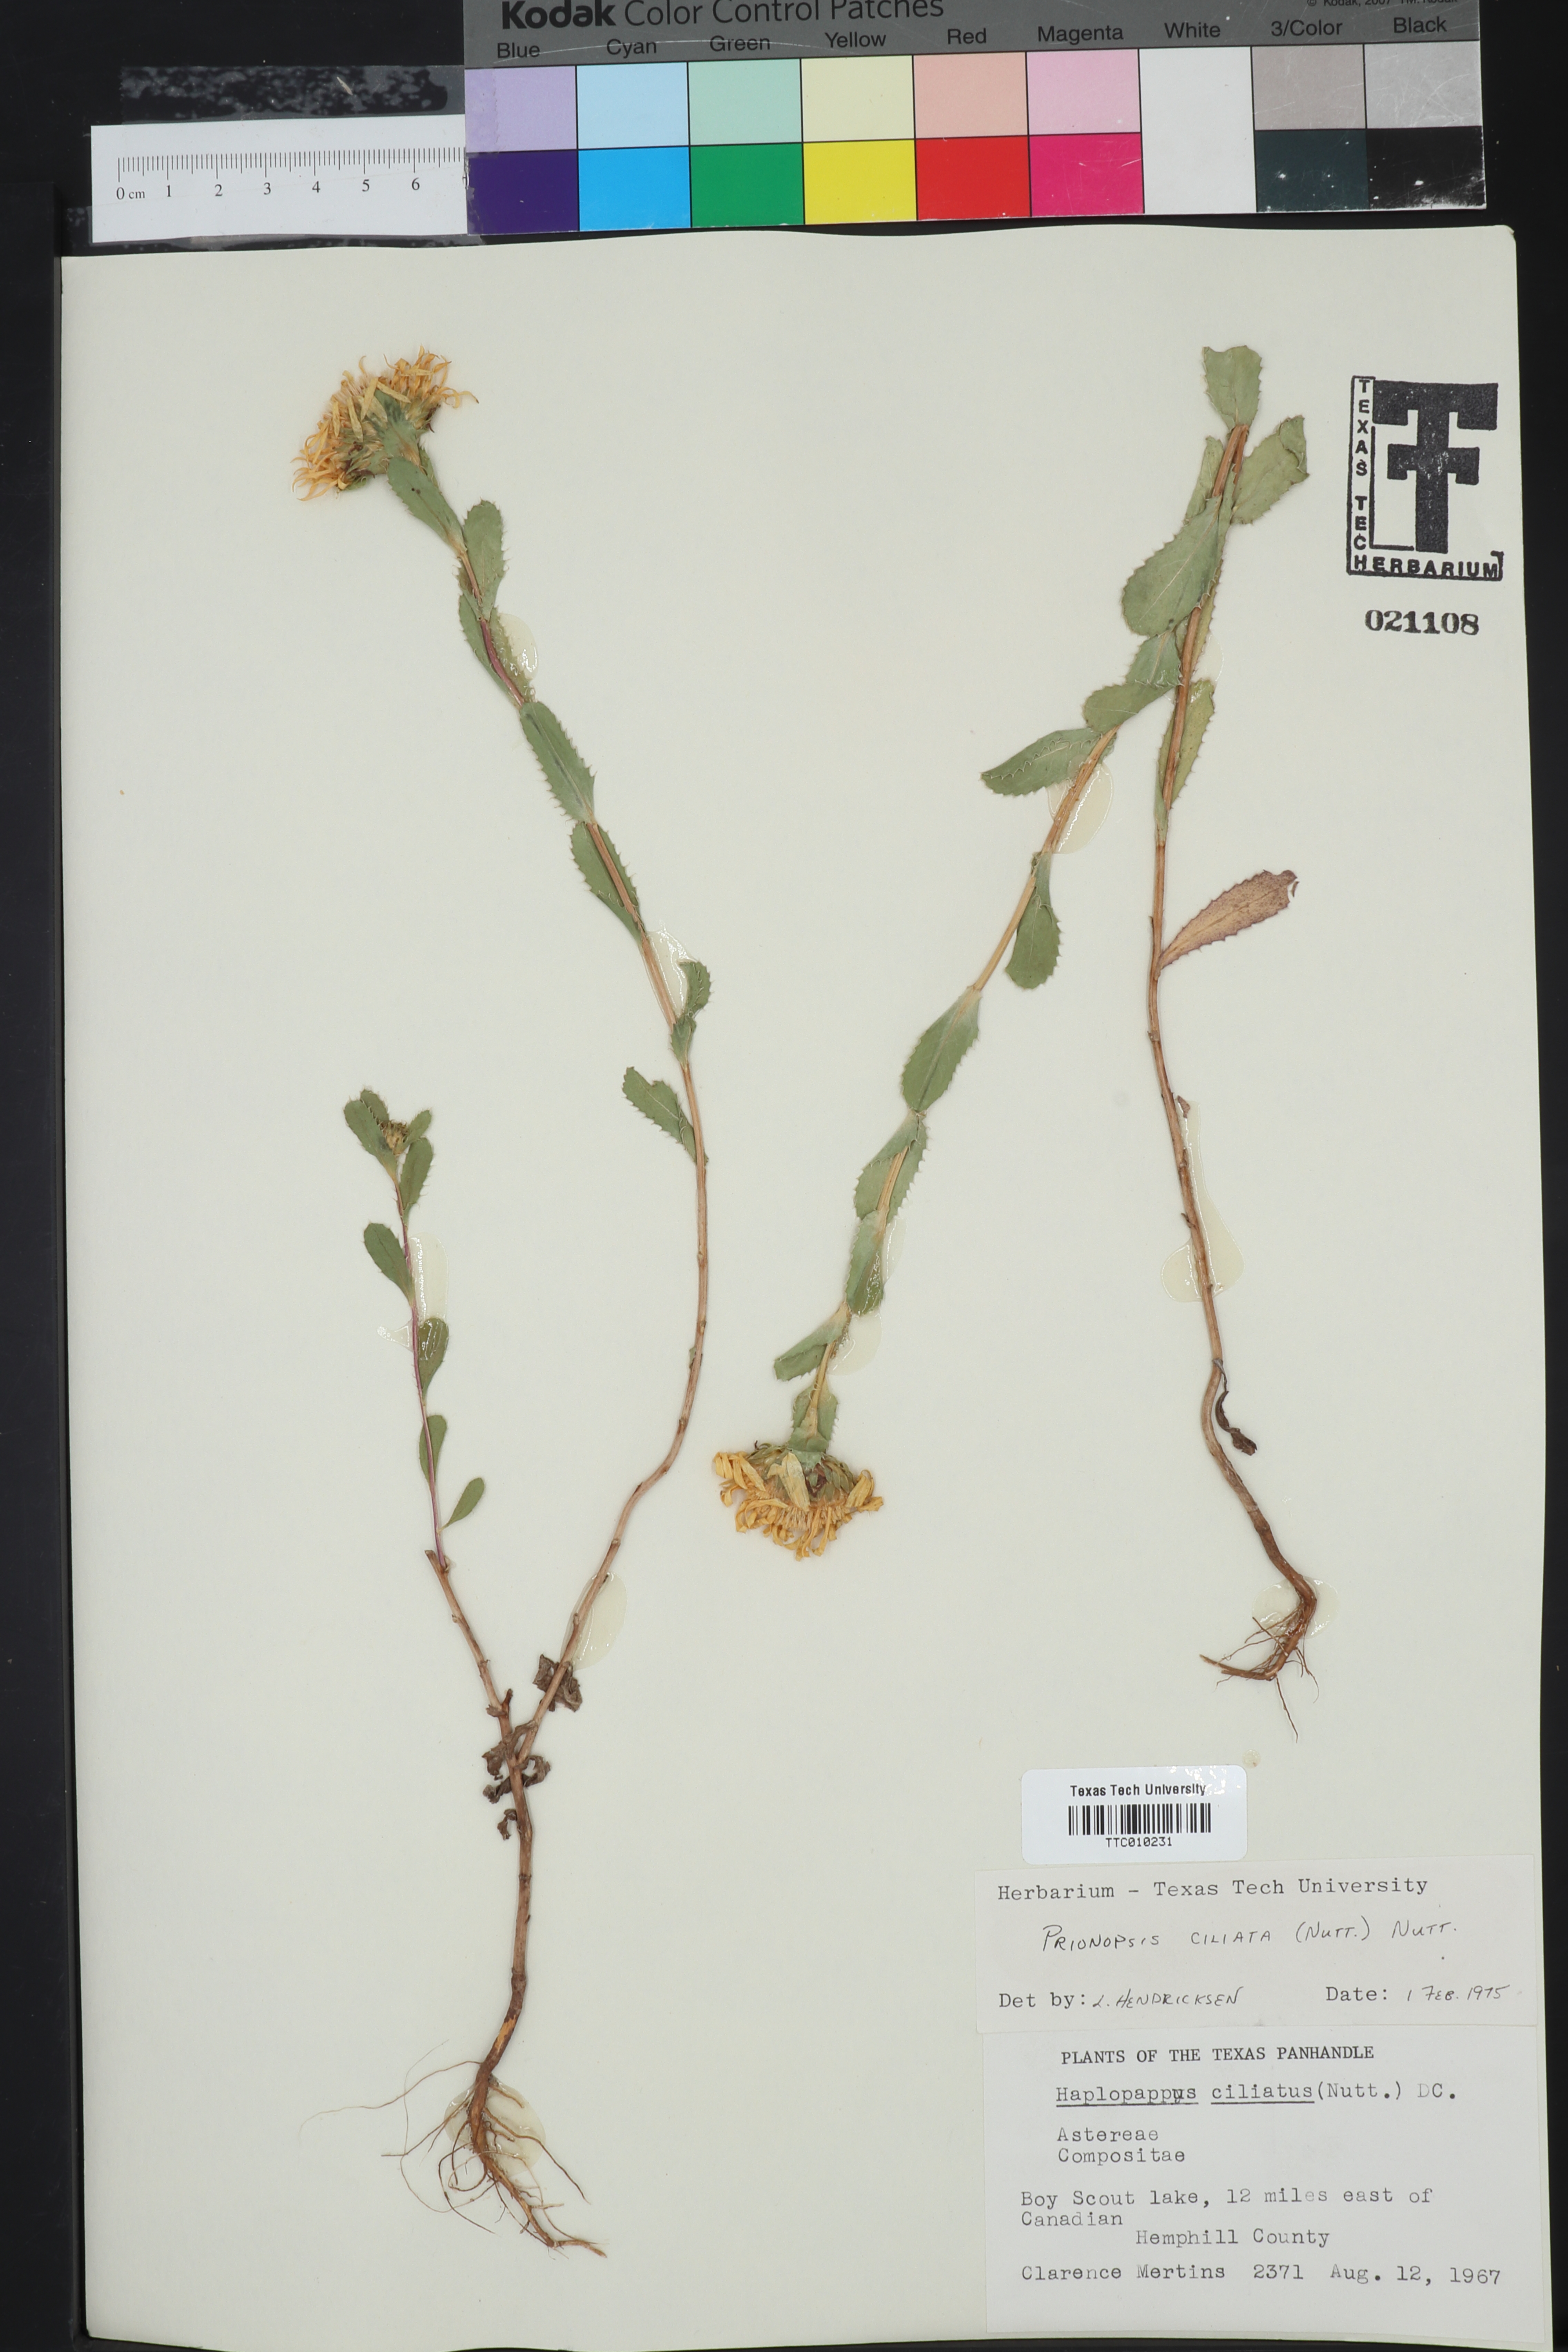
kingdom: Plantae
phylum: Tracheophyta
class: Magnoliopsida
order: Asterales
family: Asteraceae
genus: Grindelia
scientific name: Grindelia ciliata
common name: Goldenweed
